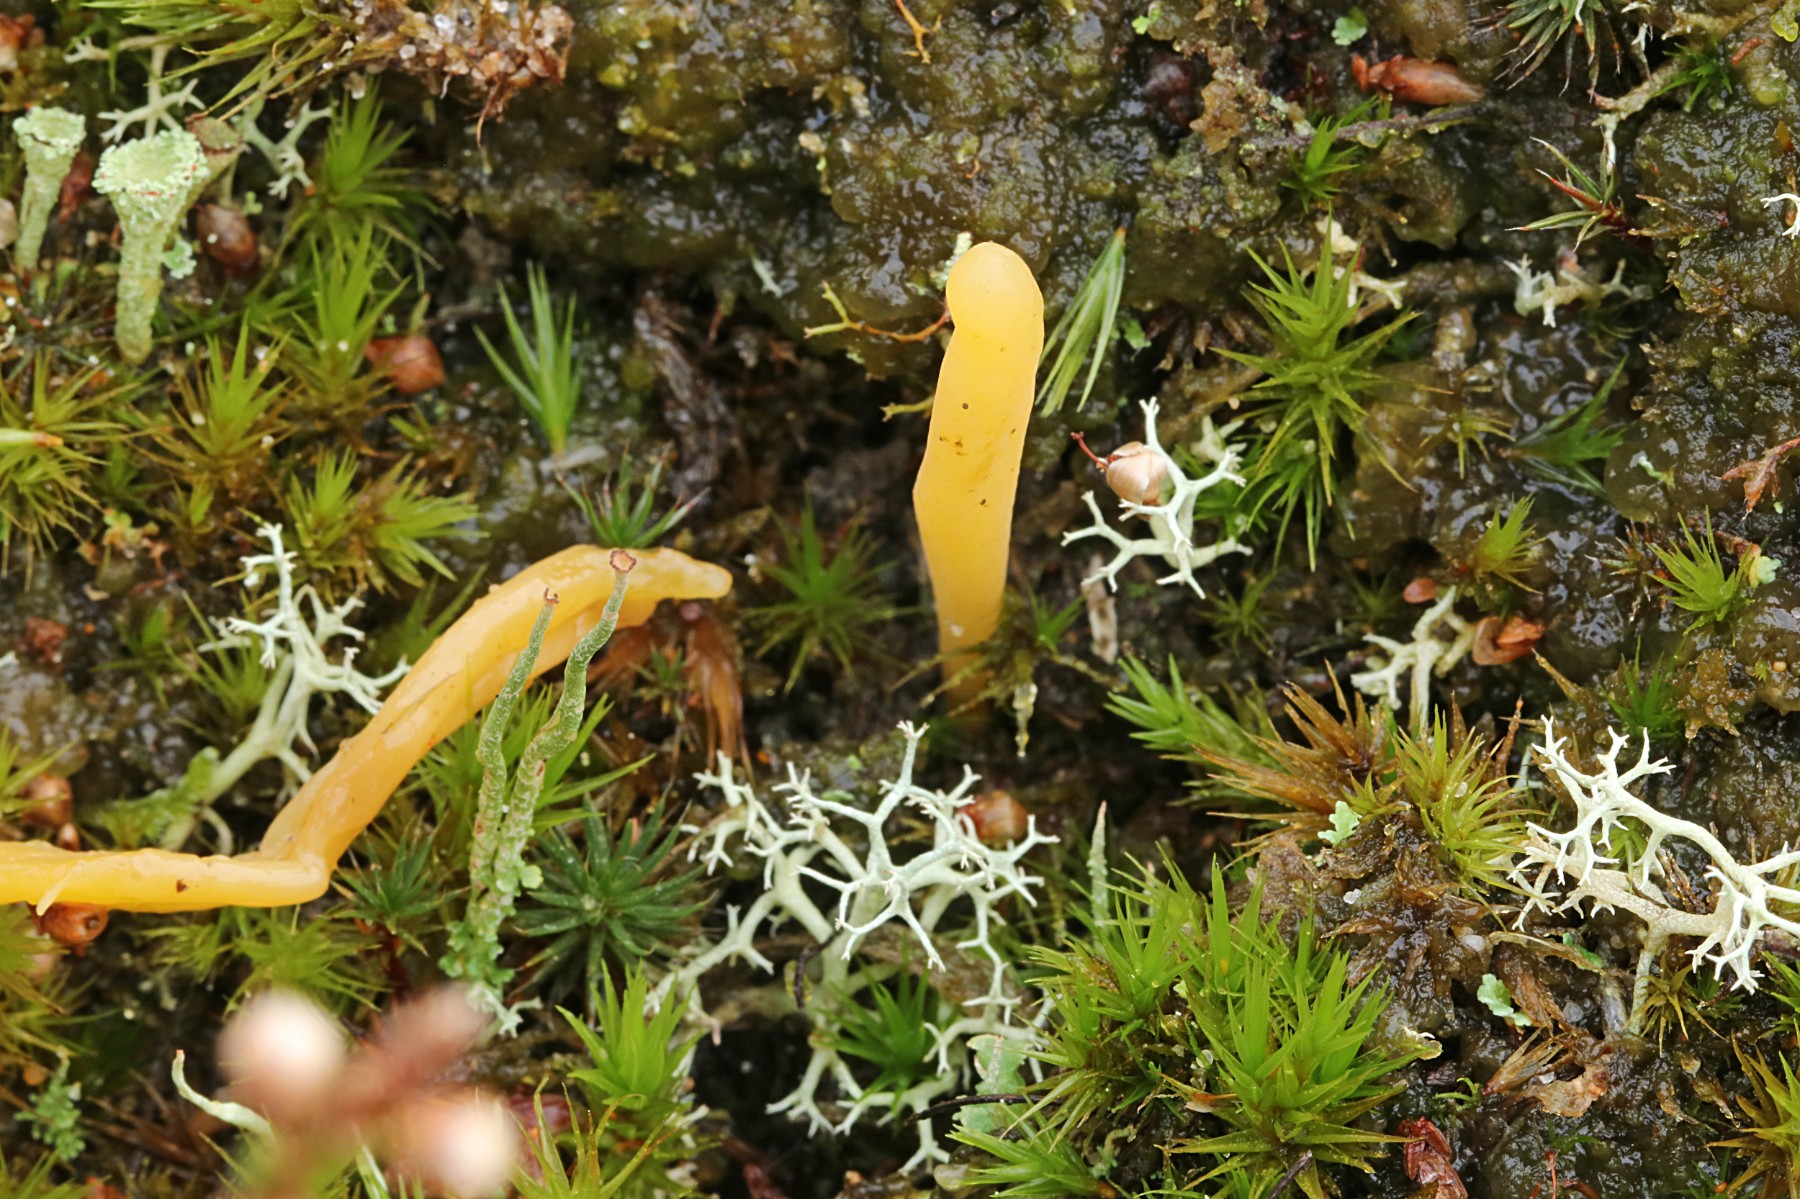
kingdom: Fungi
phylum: Basidiomycota
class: Agaricomycetes
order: Agaricales
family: Clavariaceae
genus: Clavaria
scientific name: Clavaria argillacea
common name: lerfarvet køllesvamp
